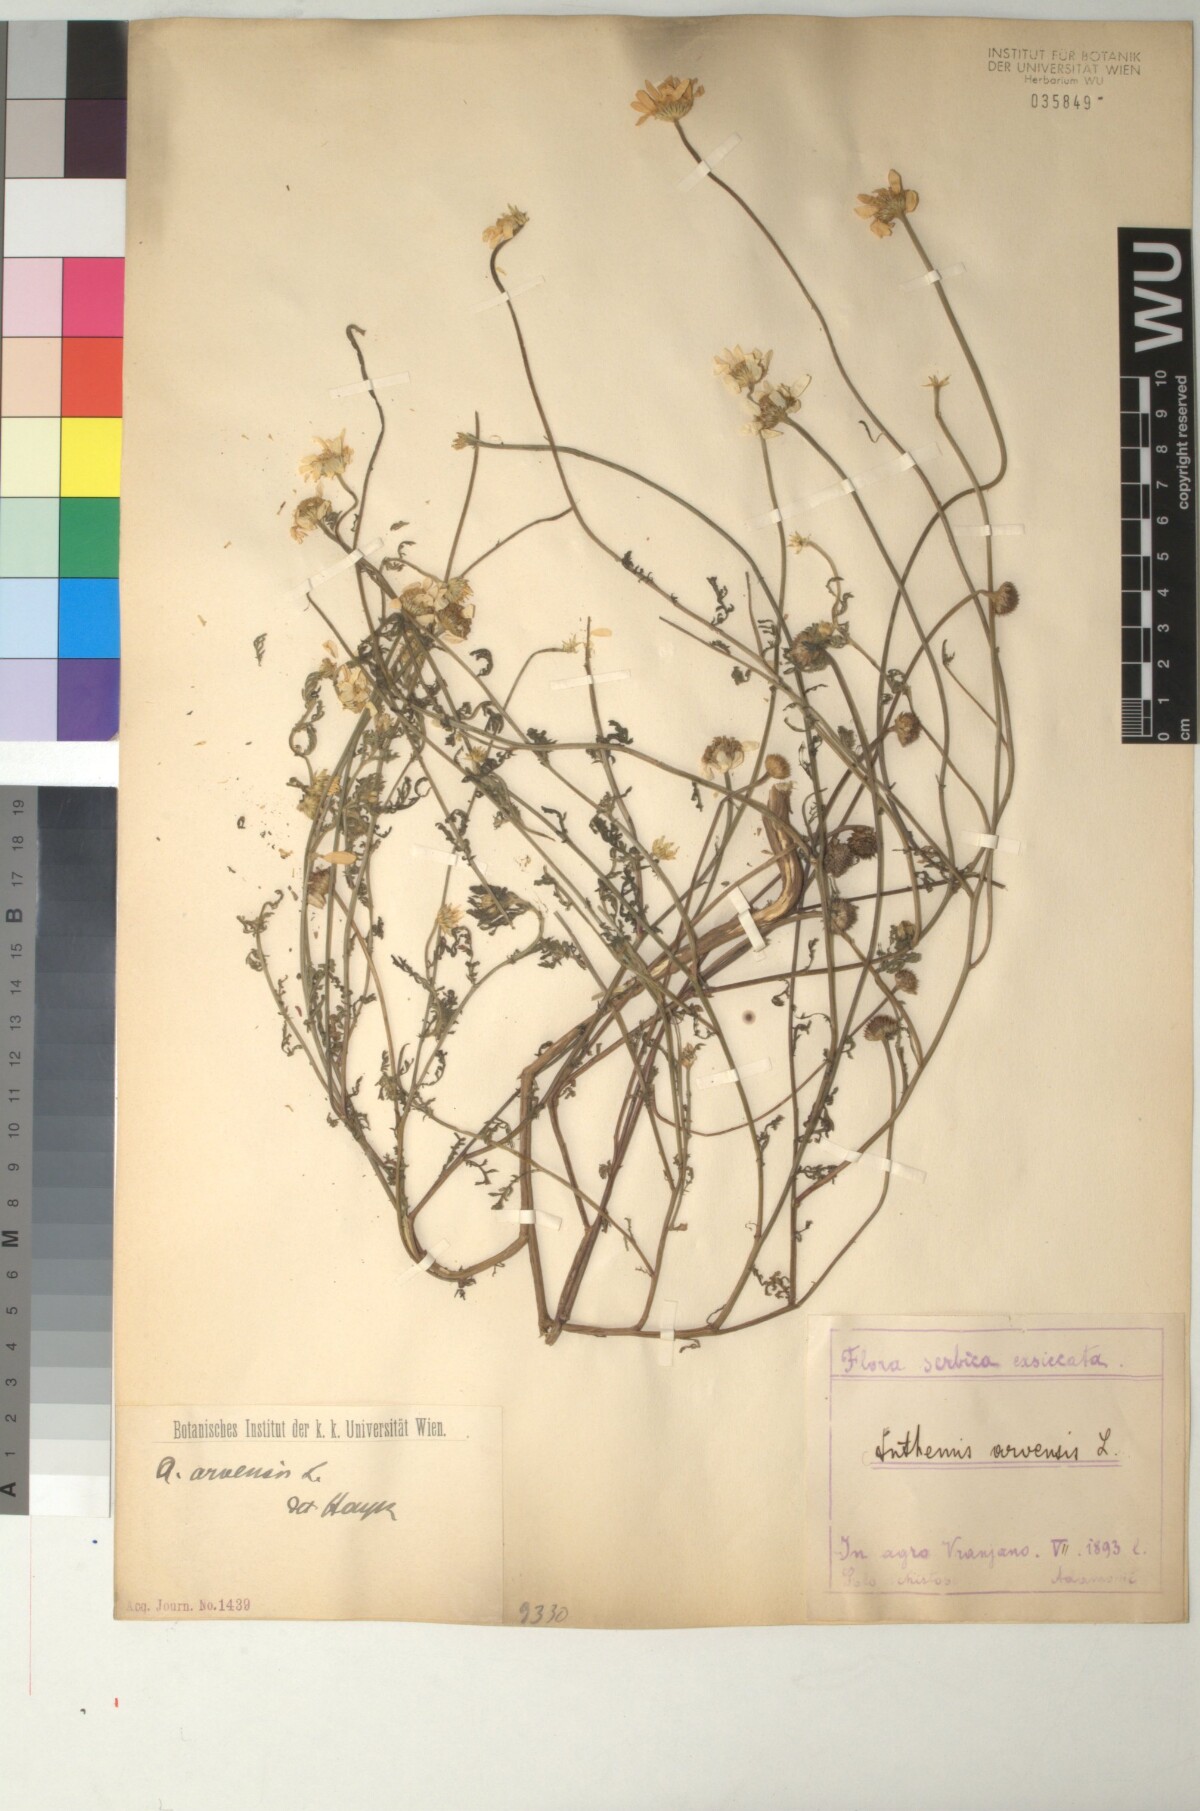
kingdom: Plantae
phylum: Tracheophyta
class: Magnoliopsida
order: Asterales
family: Asteraceae
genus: Anthemis
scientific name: Anthemis arvensis
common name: Corn chamomile
